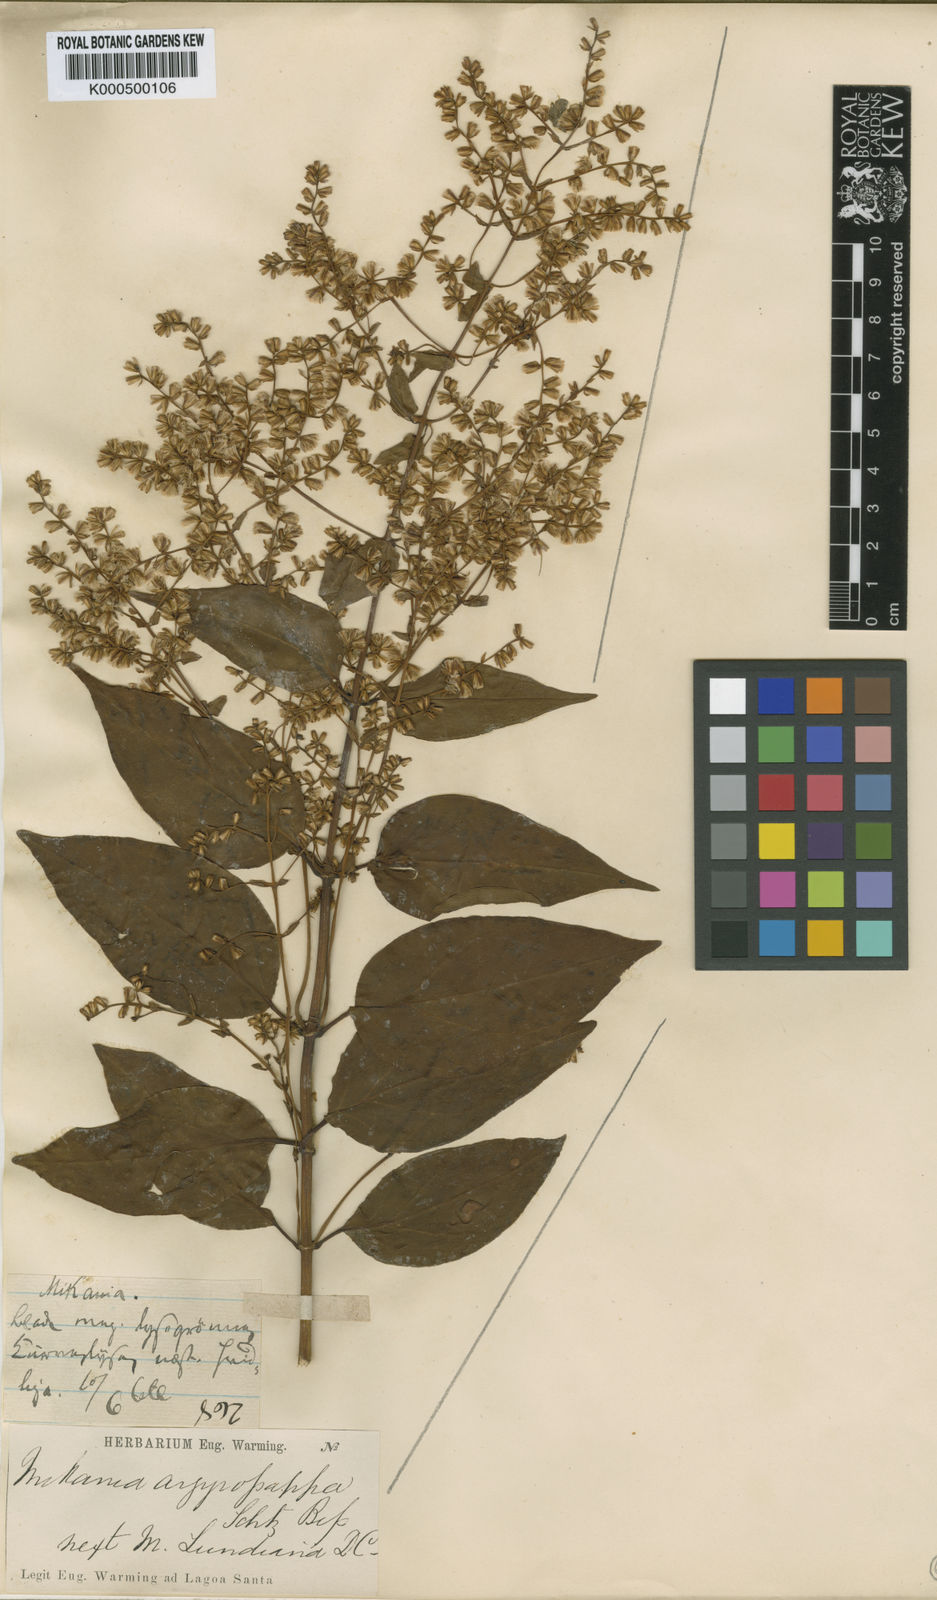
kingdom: Plantae
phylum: Tracheophyta
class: Magnoliopsida
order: Asterales
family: Asteraceae
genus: Mikania
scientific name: Mikania argyropappa
